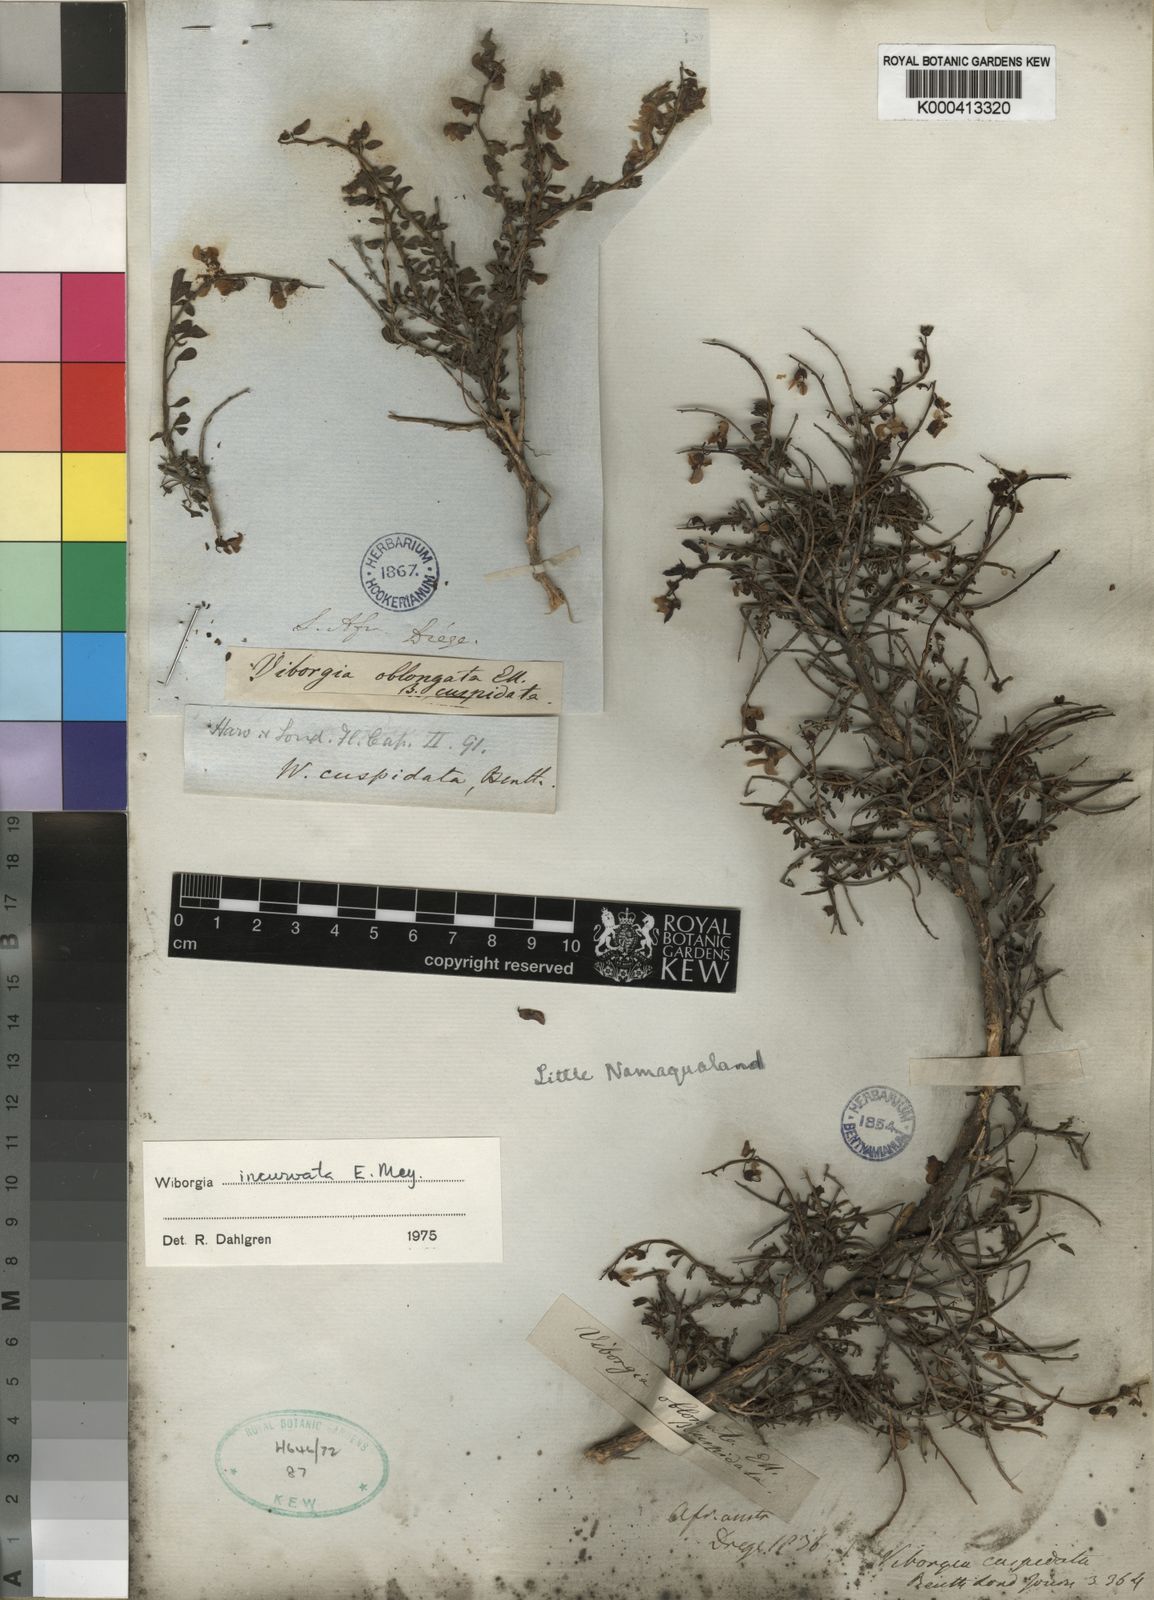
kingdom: Plantae
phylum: Tracheophyta
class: Magnoliopsida
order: Fabales
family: Fabaceae
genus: Wiborgia
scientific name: Wiborgia incurvata
